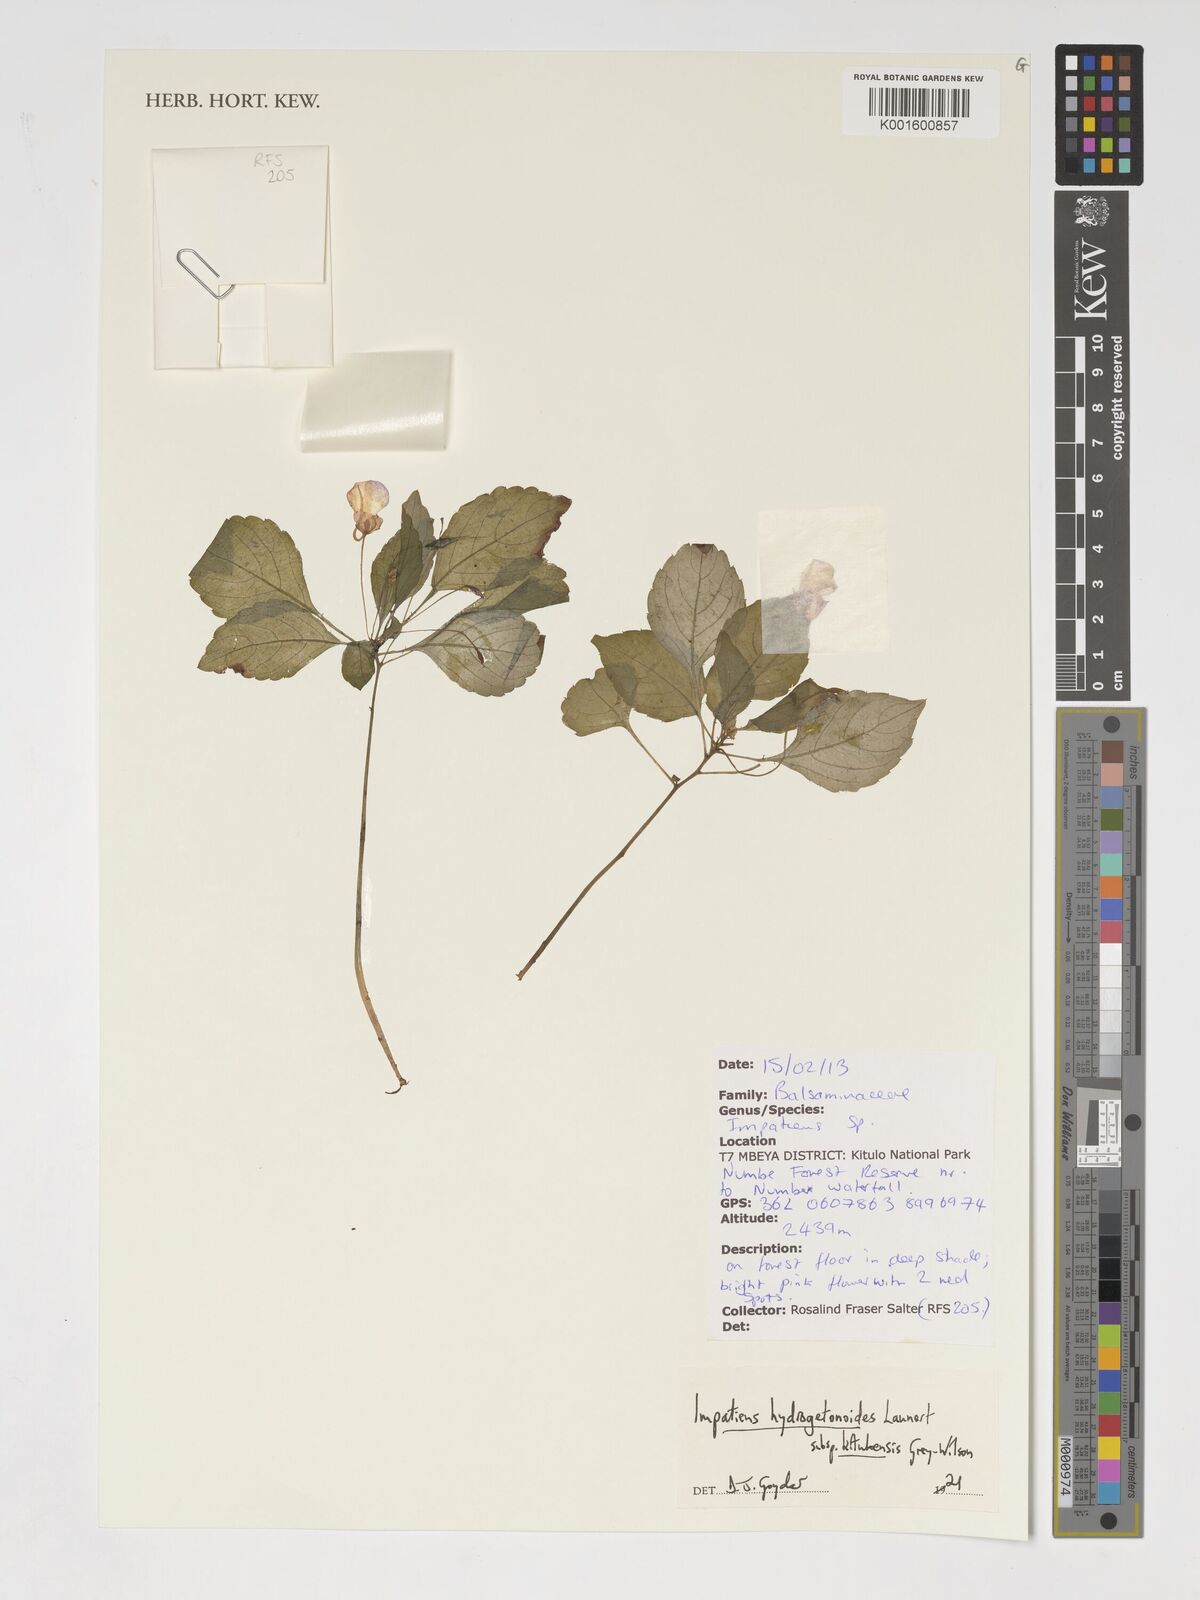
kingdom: Plantae
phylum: Tracheophyta
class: Magnoliopsida
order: Ericales
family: Balsaminaceae
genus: Impatiens
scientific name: Impatiens hydrogetonoides
